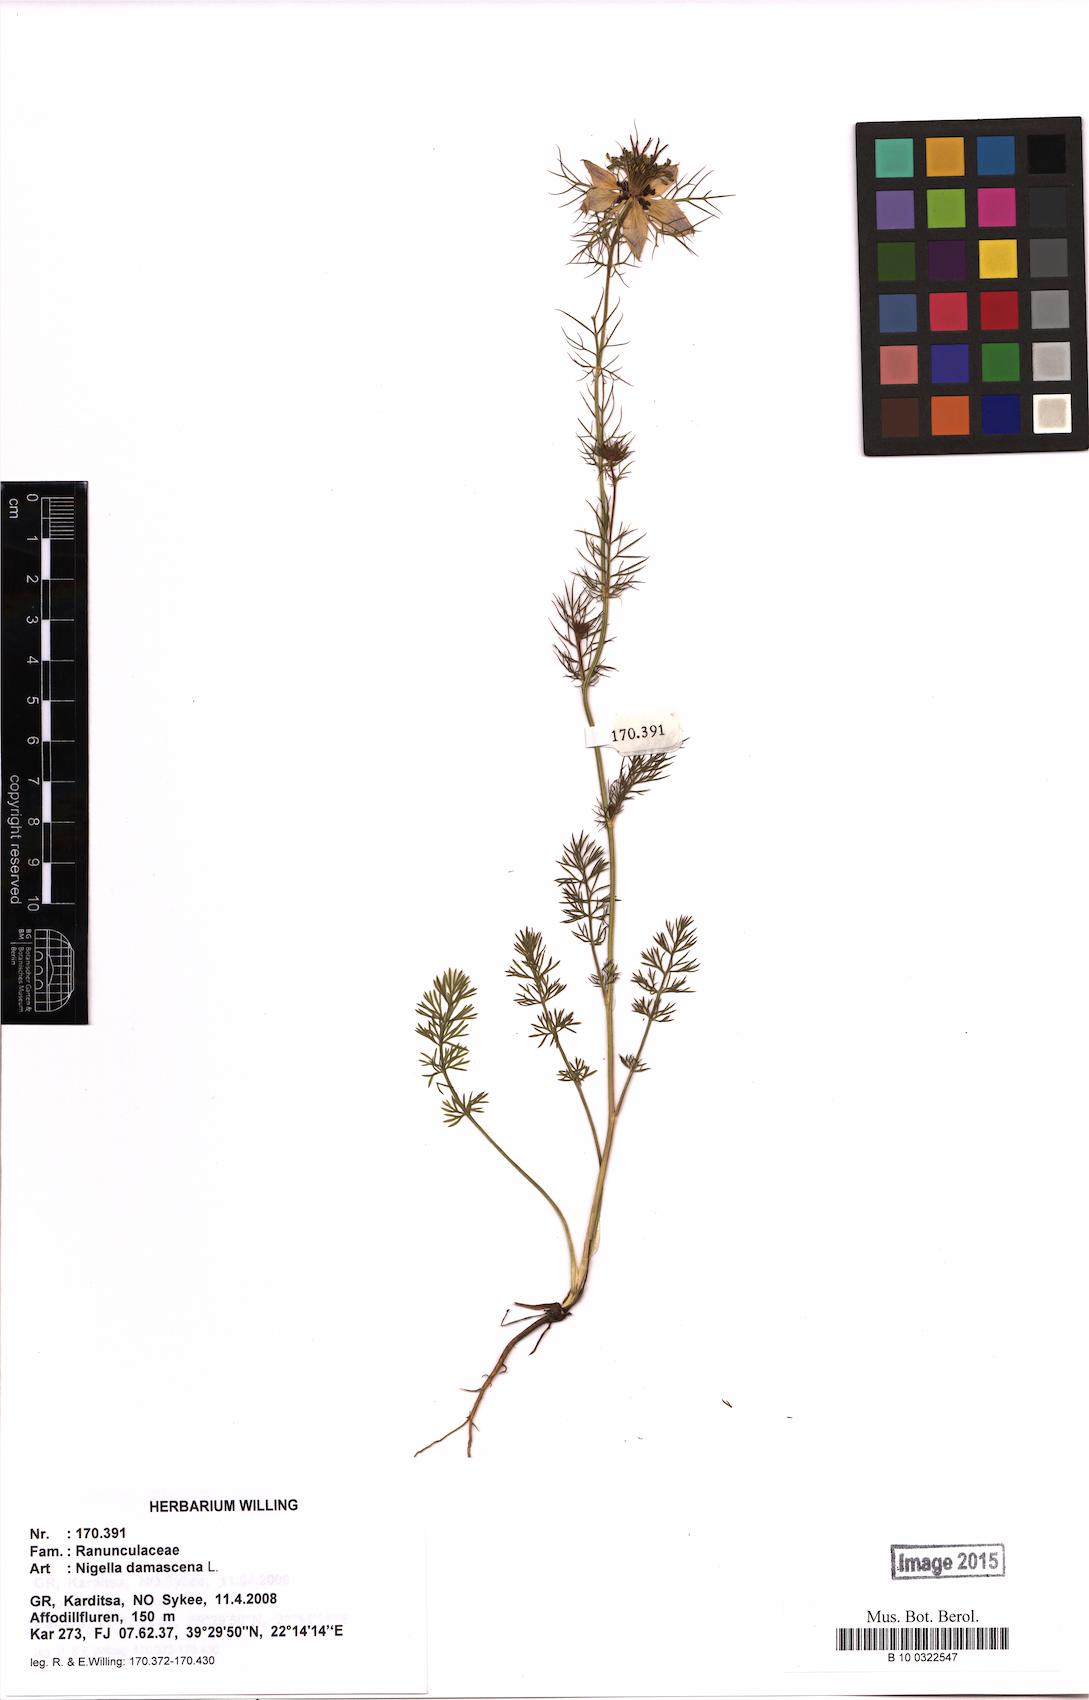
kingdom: Plantae
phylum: Tracheophyta
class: Magnoliopsida
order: Ranunculales
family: Ranunculaceae
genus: Nigella
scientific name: Nigella damascena
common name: Love-in-a-mist
